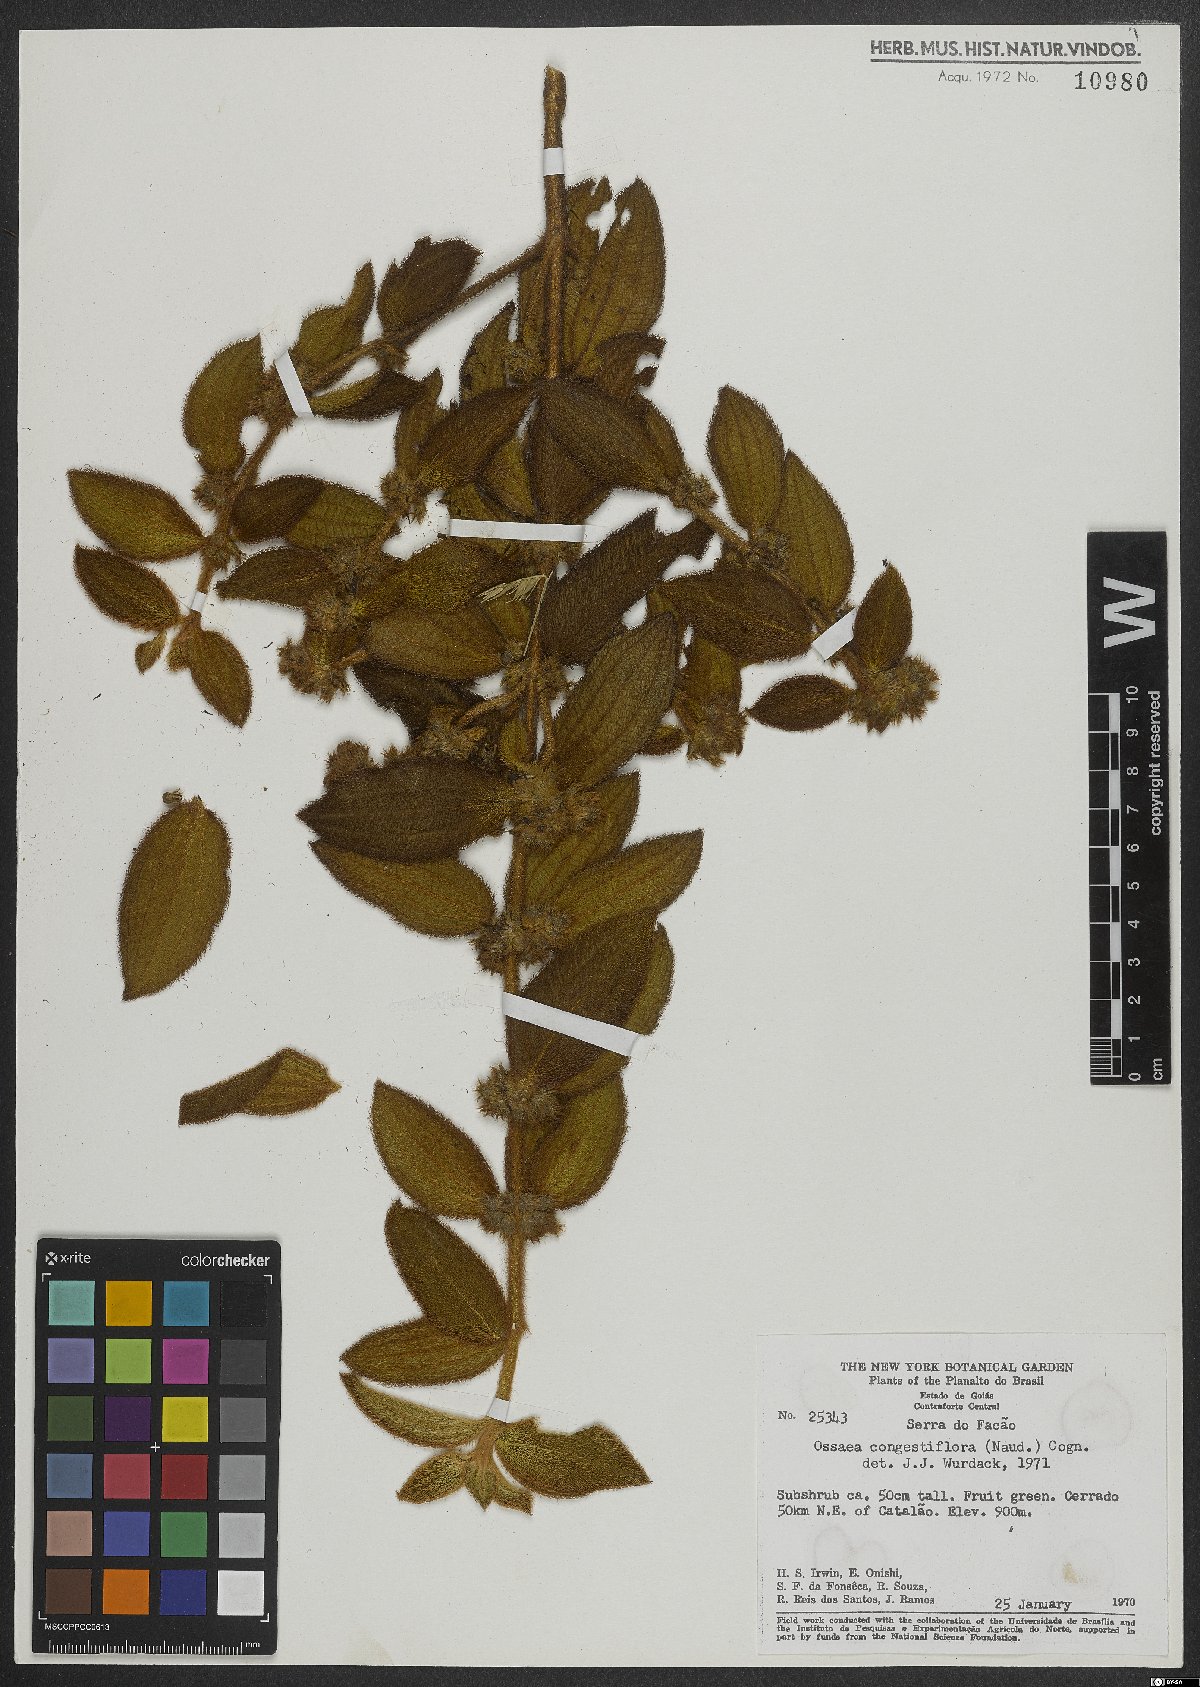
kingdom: Plantae
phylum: Tracheophyta
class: Magnoliopsida
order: Myrtales
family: Melastomataceae
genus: Miconia
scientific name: Miconia leacongestiflora
